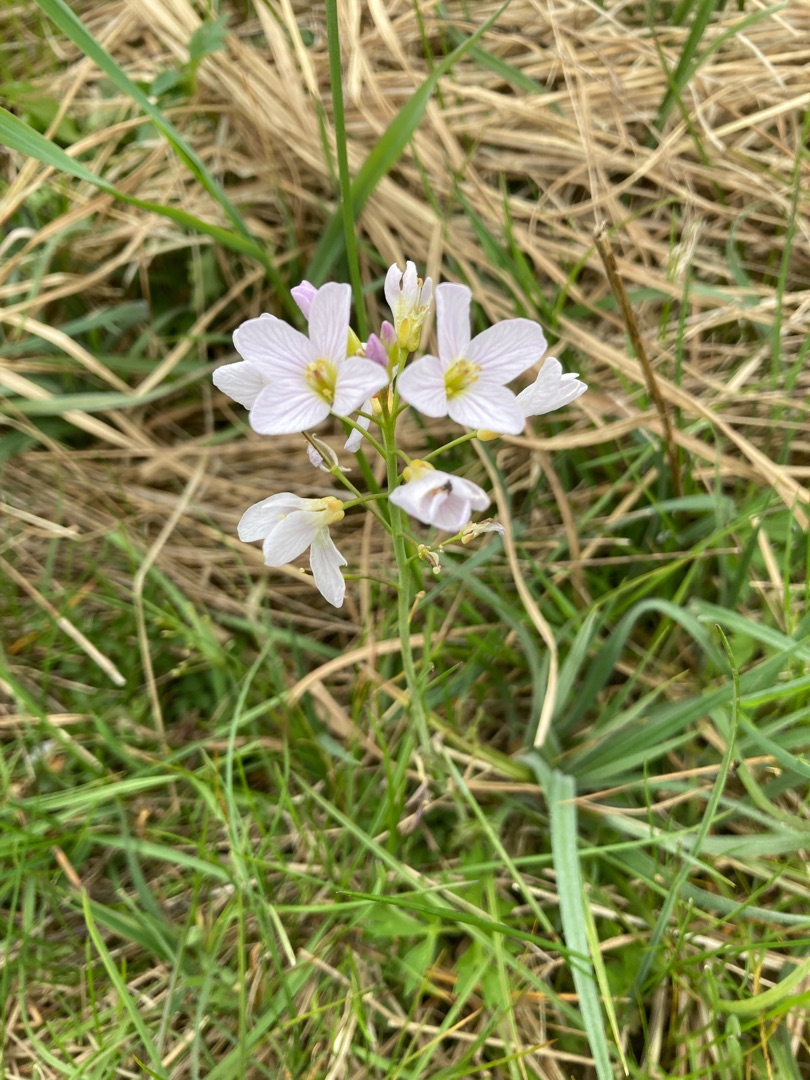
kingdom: Plantae
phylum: Tracheophyta
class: Magnoliopsida
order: Brassicales
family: Brassicaceae
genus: Cardamine
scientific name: Cardamine pratensis
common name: Engkarse
